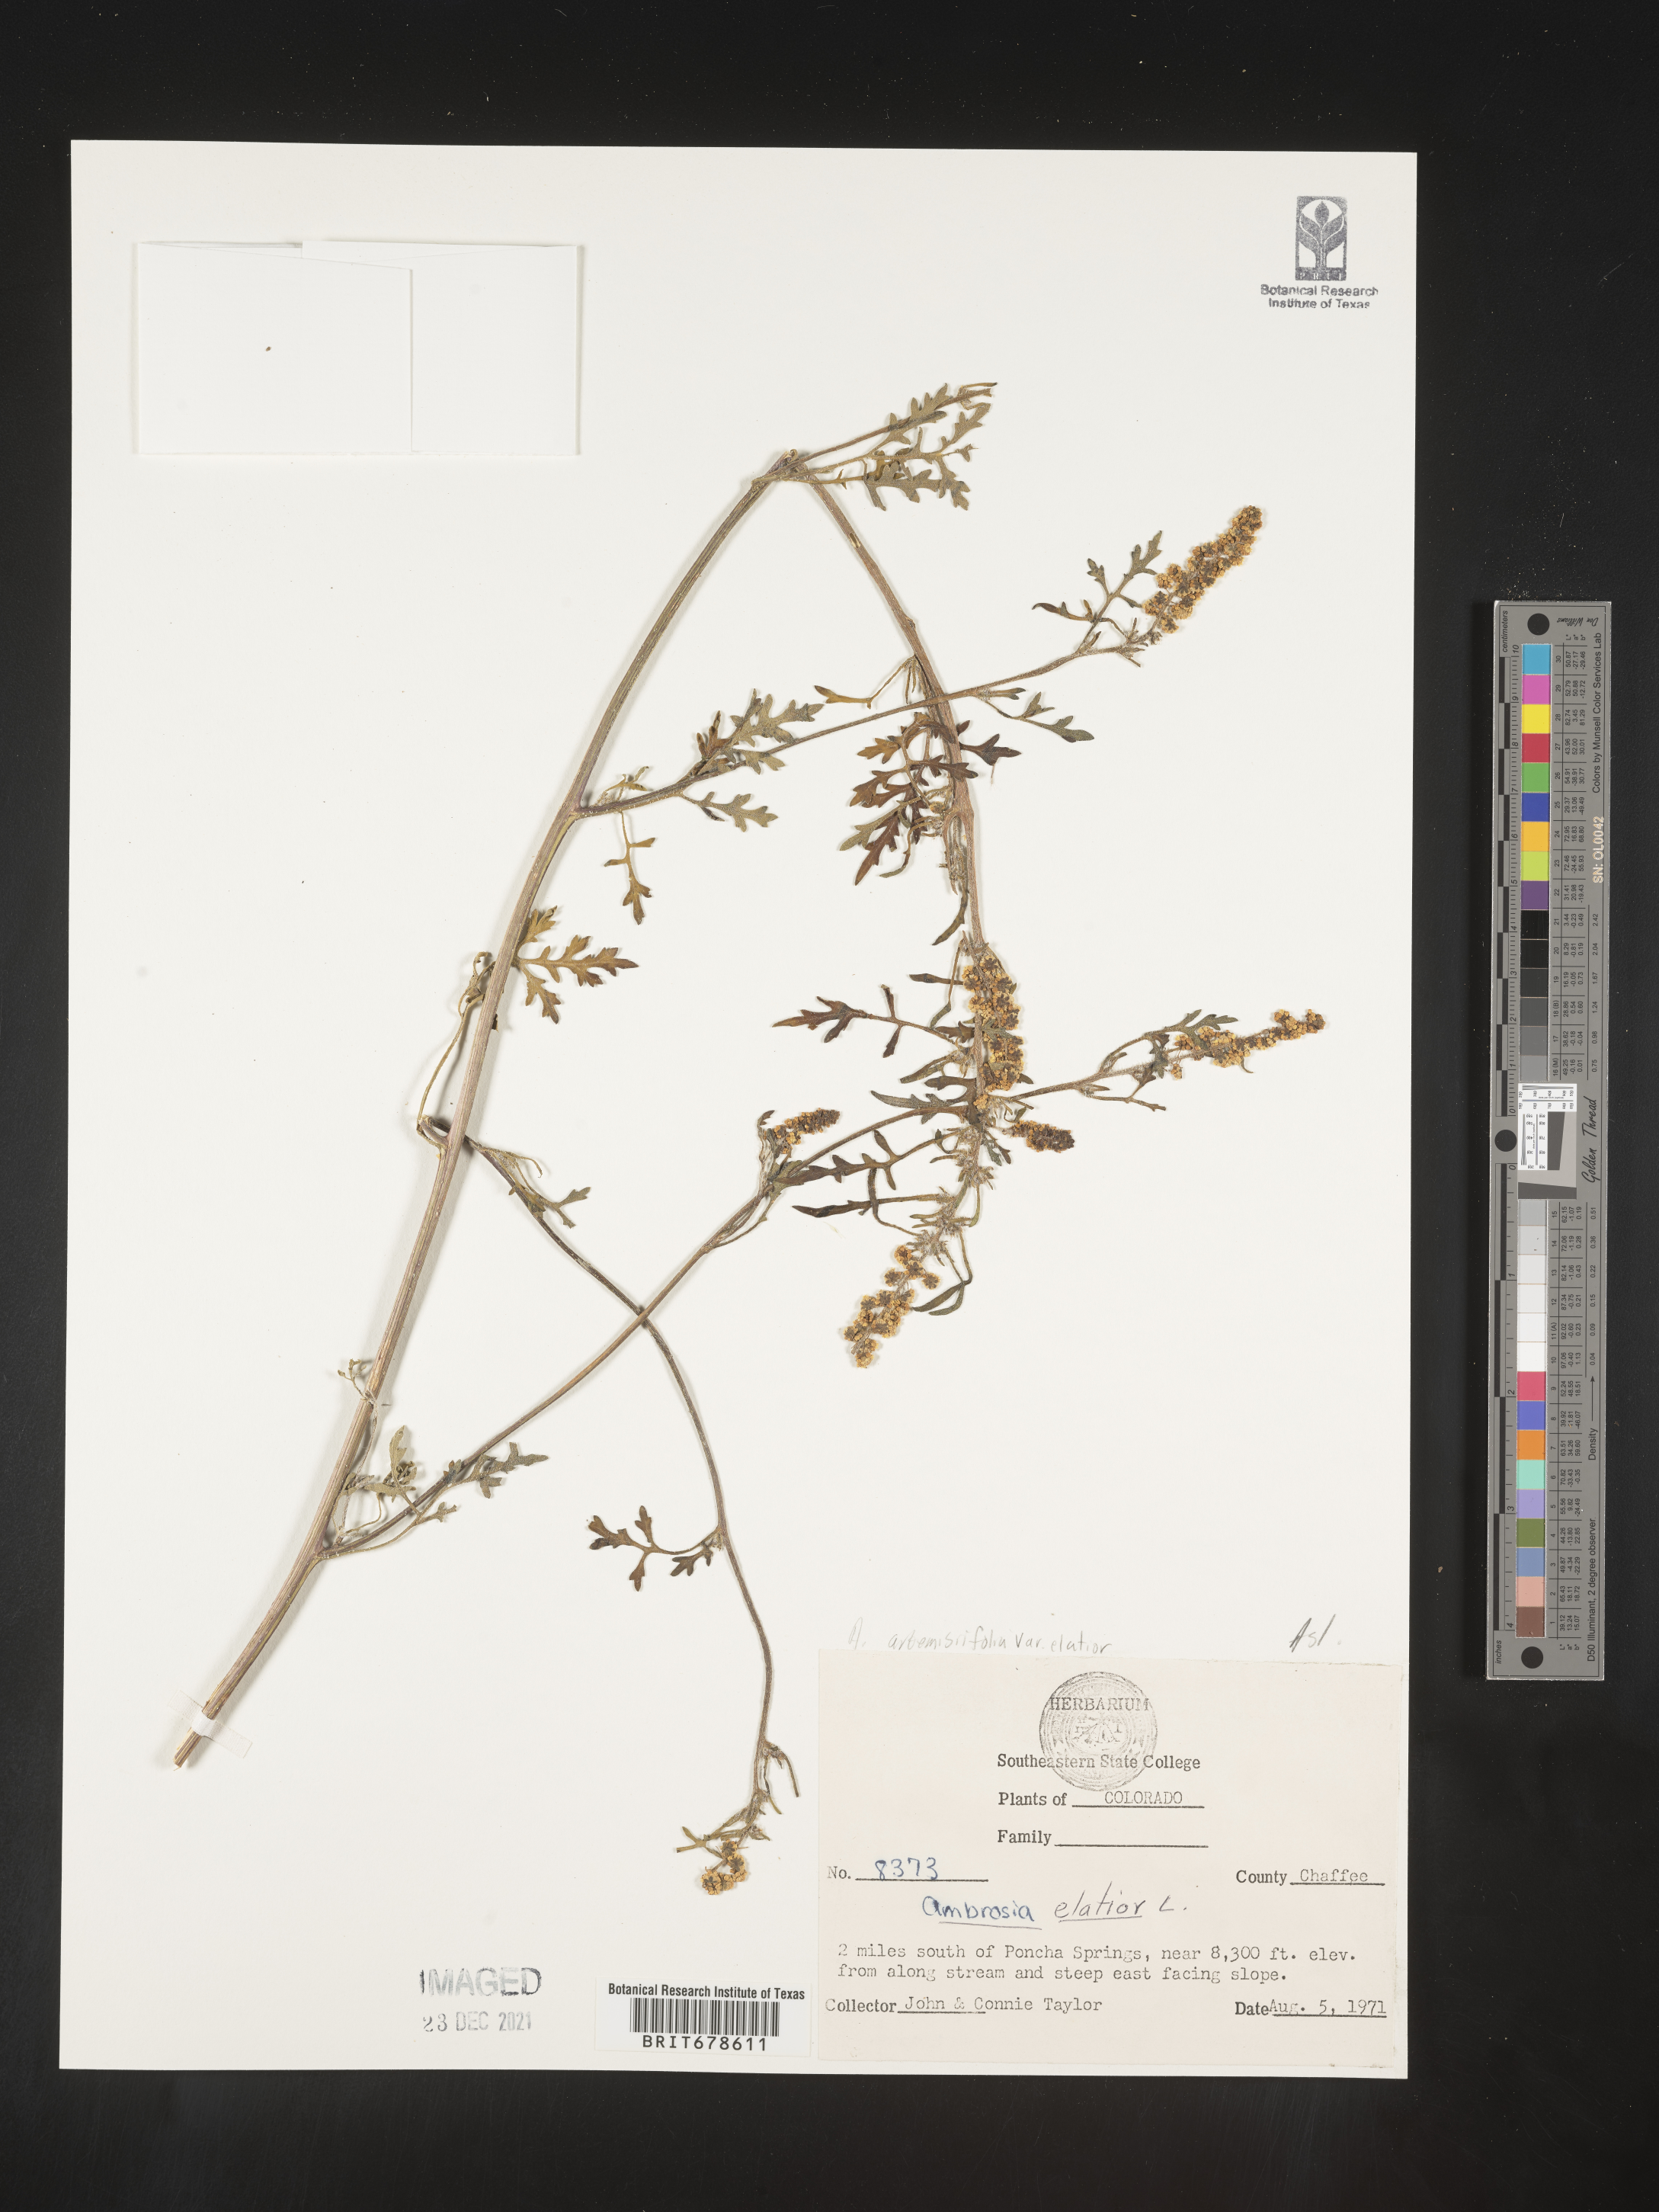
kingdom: Plantae
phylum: Tracheophyta
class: Magnoliopsida
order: Asterales
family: Asteraceae
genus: Ambrosia
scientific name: Ambrosia polystachya
